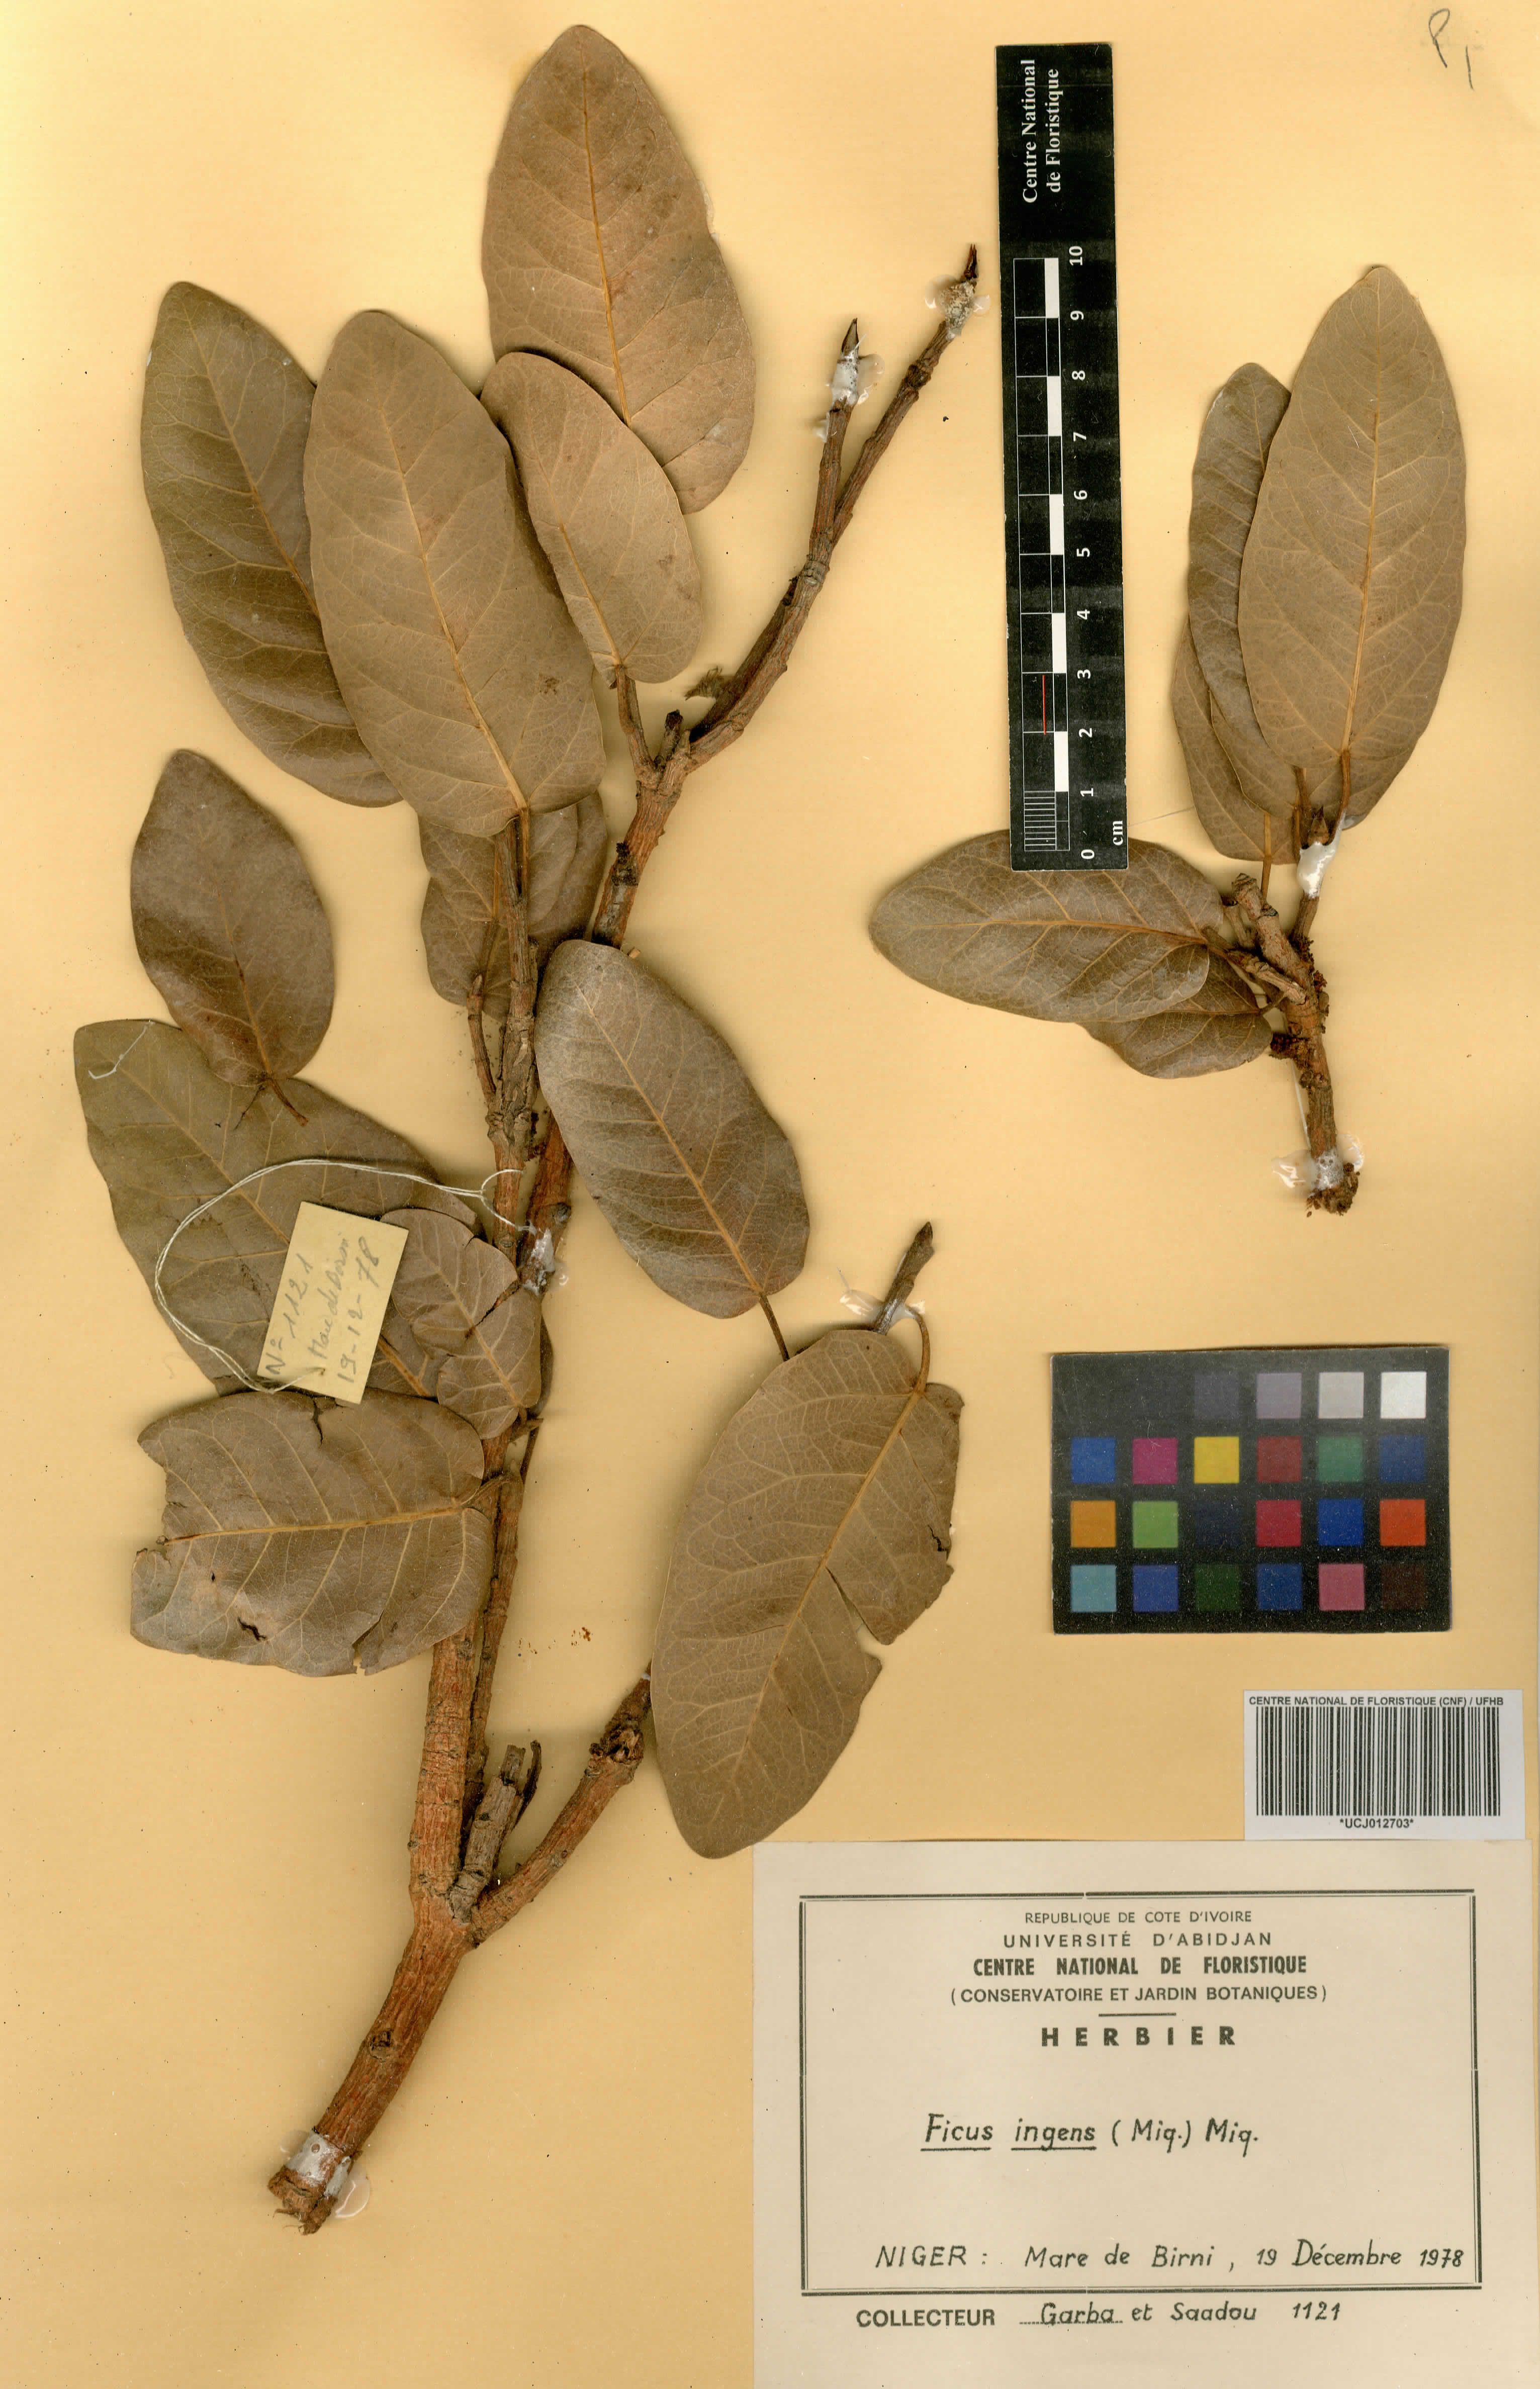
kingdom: Plantae
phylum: Tracheophyta
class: Magnoliopsida
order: Rosales
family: Moraceae
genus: Ficus
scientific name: Ficus ingens
